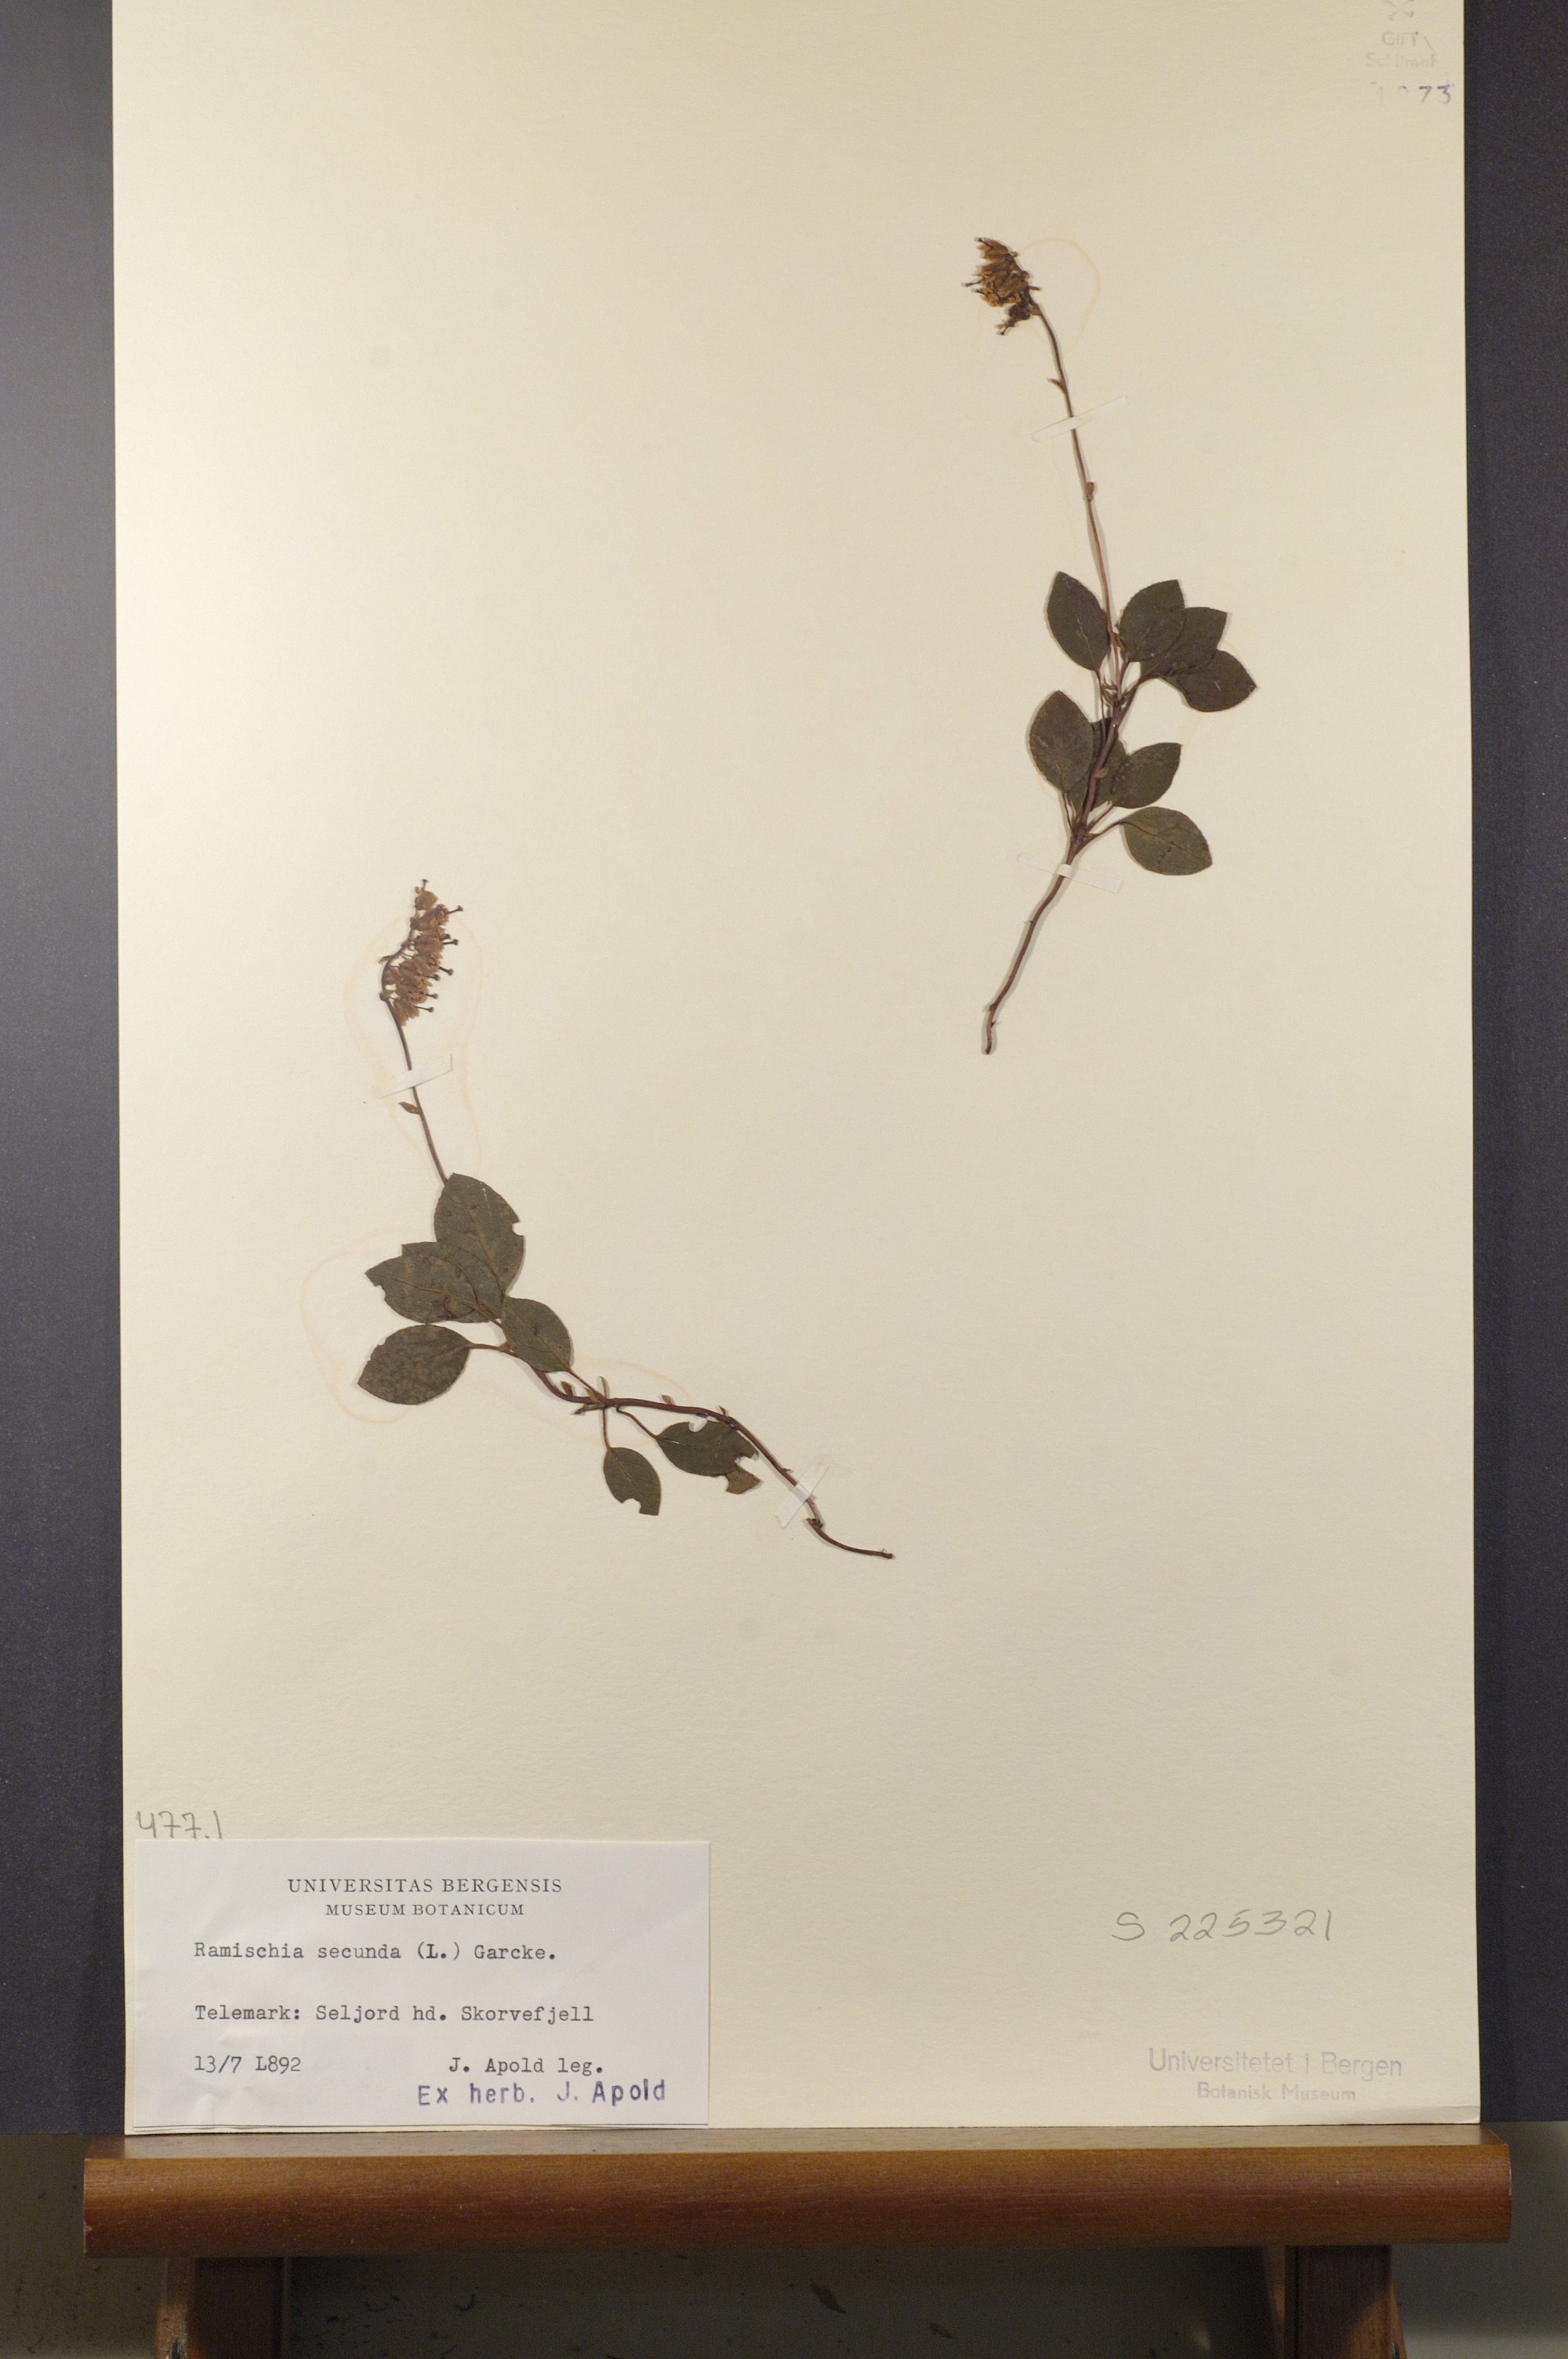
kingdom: Plantae
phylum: Tracheophyta
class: Magnoliopsida
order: Ericales
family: Ericaceae
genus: Orthilia
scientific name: Orthilia secunda
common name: One-sided orthilia
